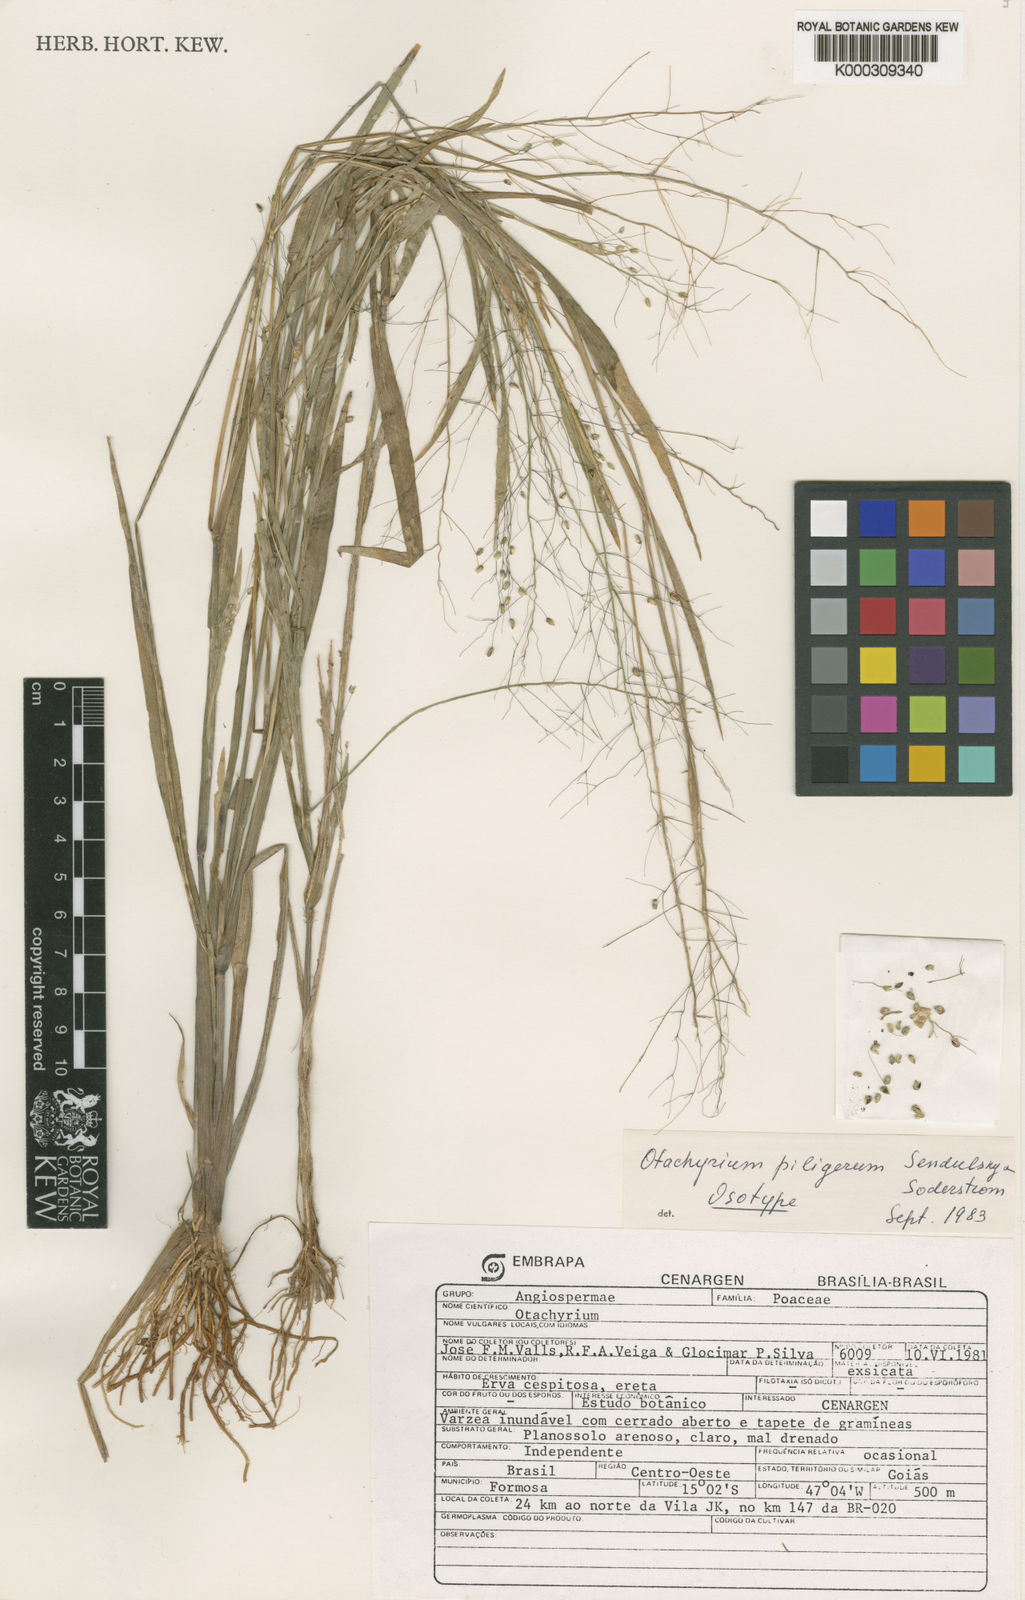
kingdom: Plantae
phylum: Tracheophyta
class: Liliopsida
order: Poales
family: Poaceae
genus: Otachyrium
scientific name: Otachyrium piligerum
